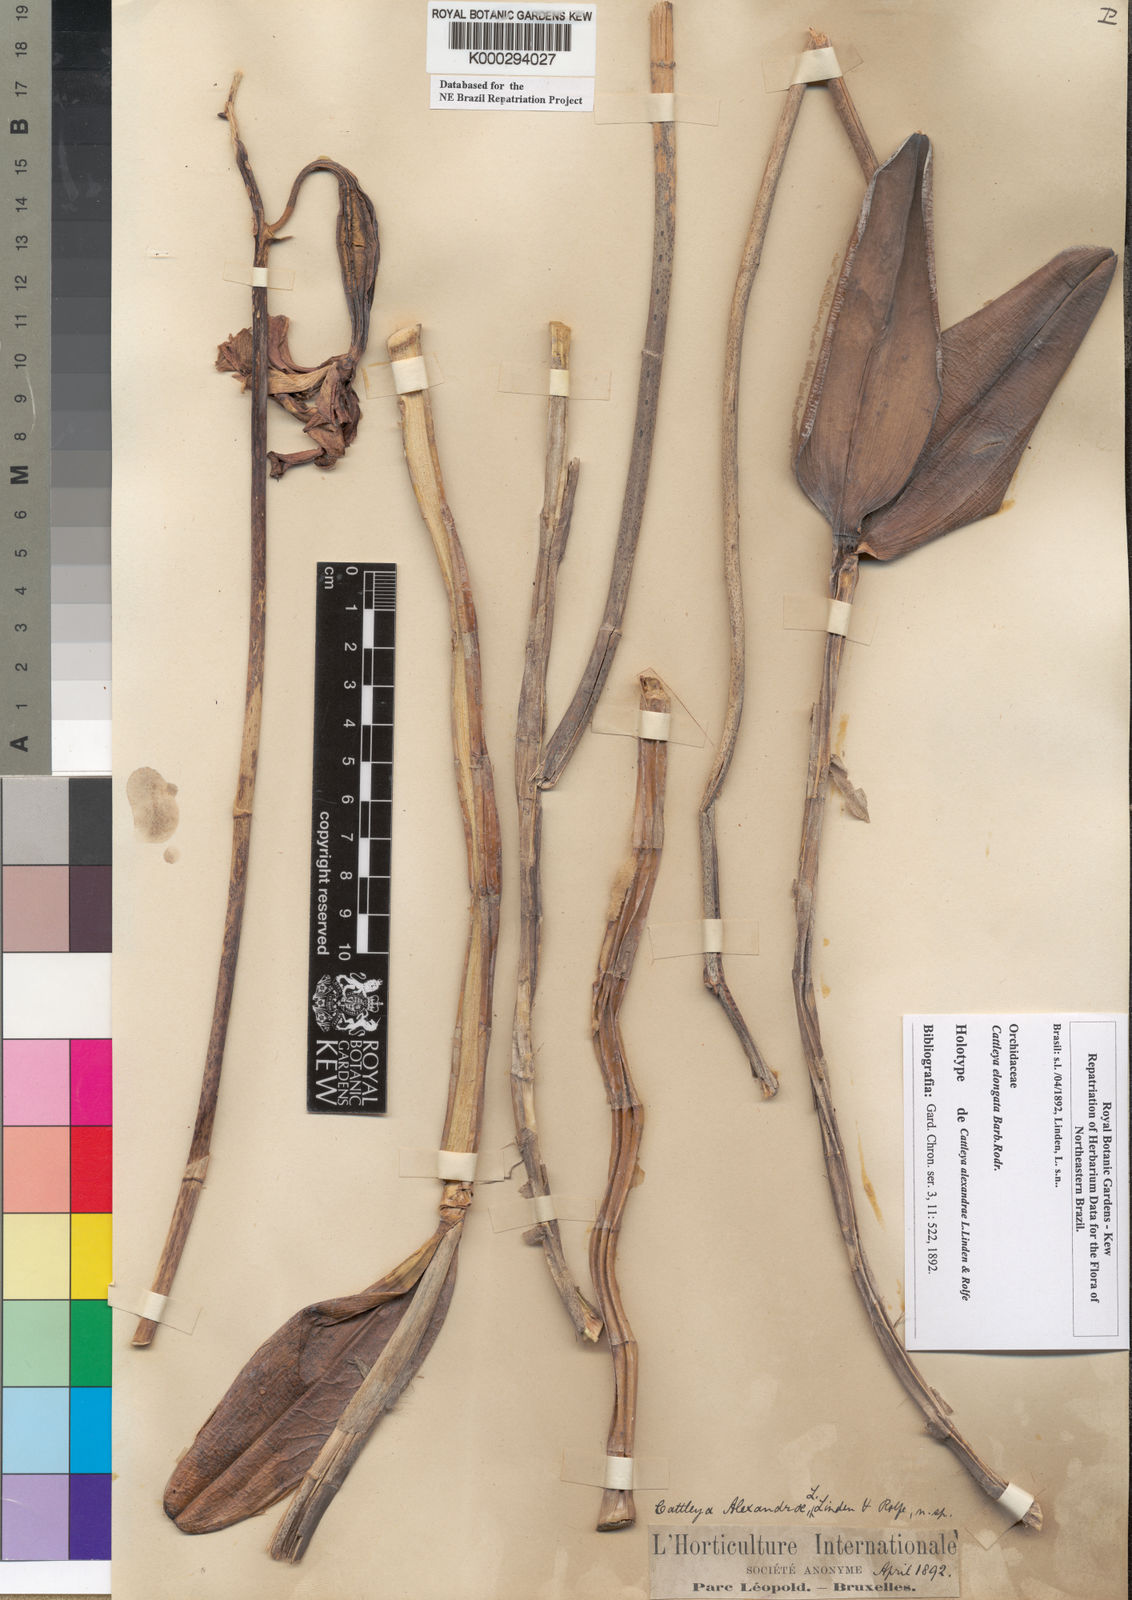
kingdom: Plantae
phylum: Tracheophyta
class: Liliopsida
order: Asparagales
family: Orchidaceae
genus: Cattleya
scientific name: Cattleya elongata
